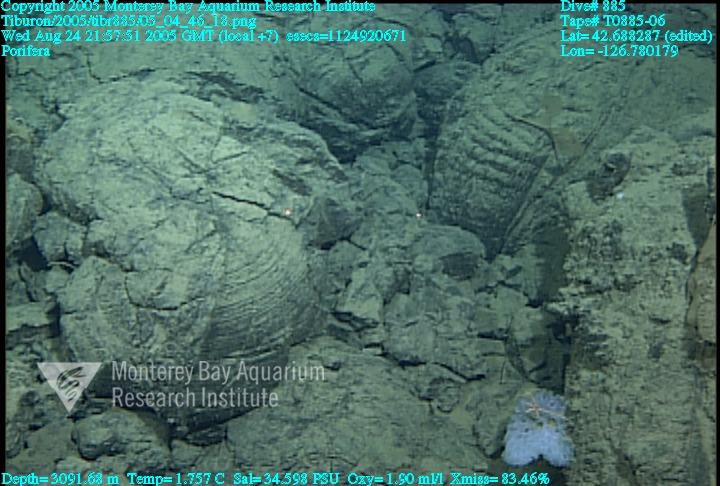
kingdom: Animalia
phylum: Porifera
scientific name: Porifera
